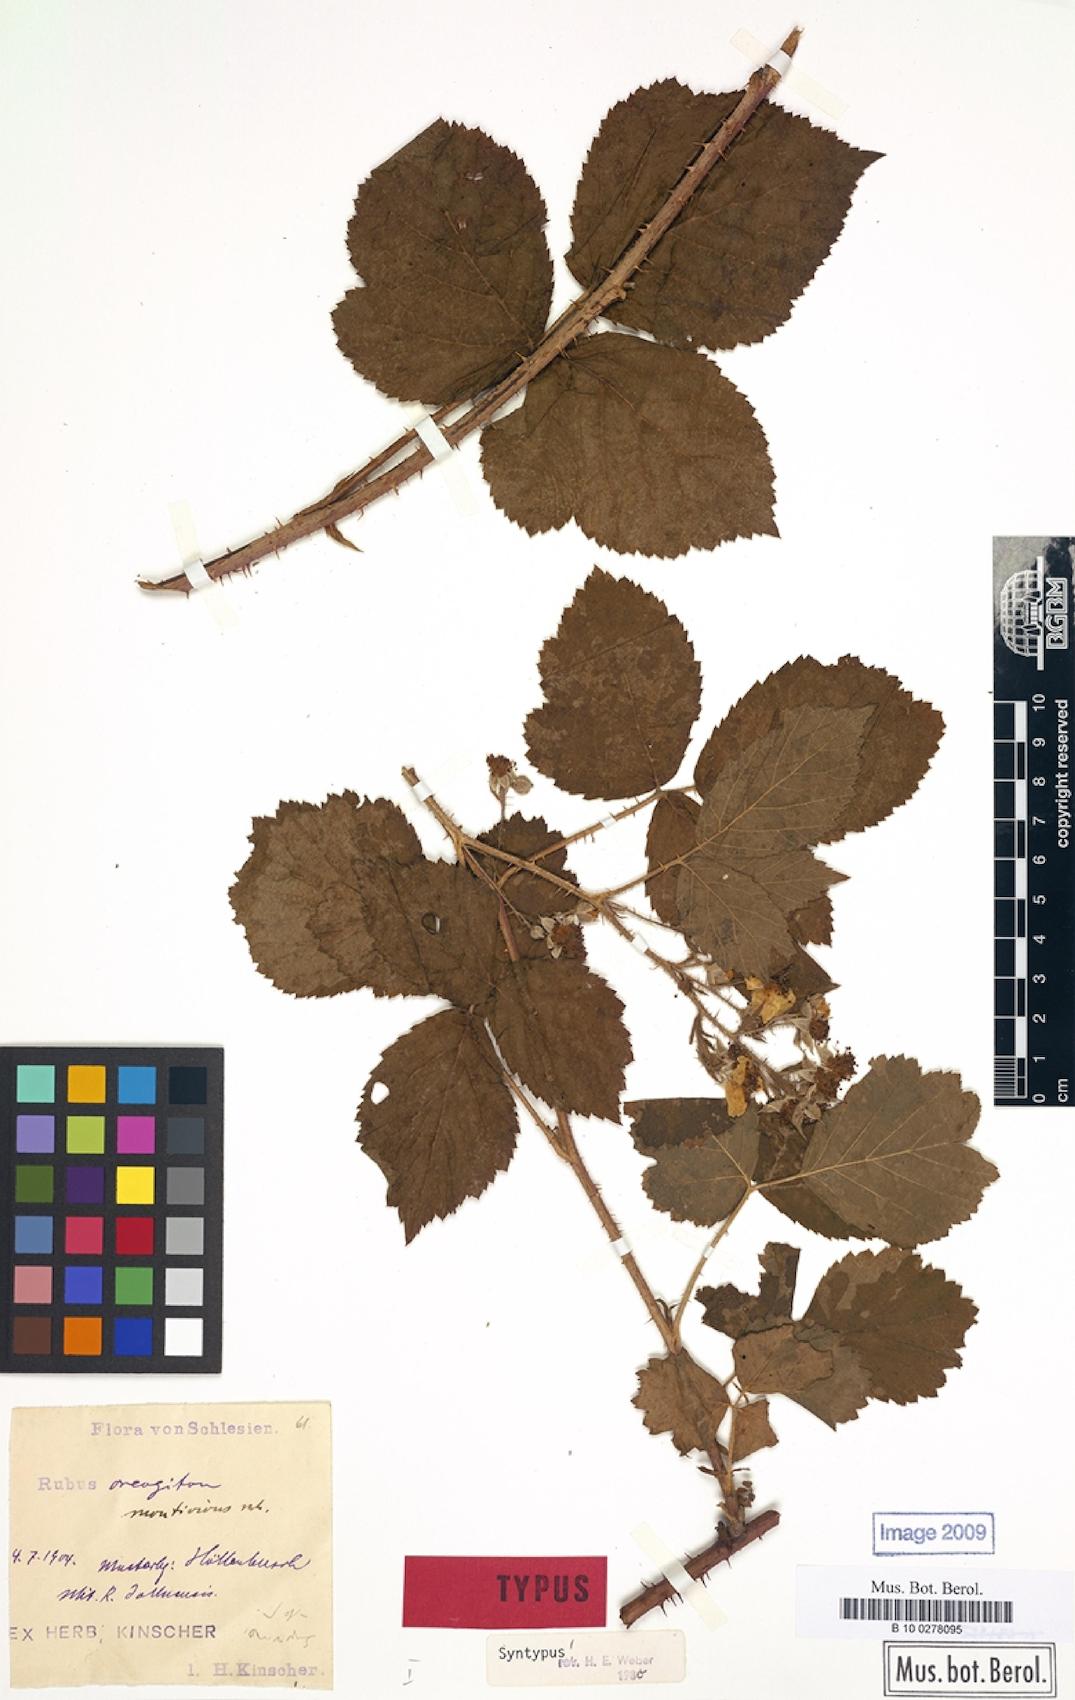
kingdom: Plantae
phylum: Tracheophyta
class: Magnoliopsida
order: Rosales
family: Rosaceae
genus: Rubus
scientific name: Rubus dollnensis
